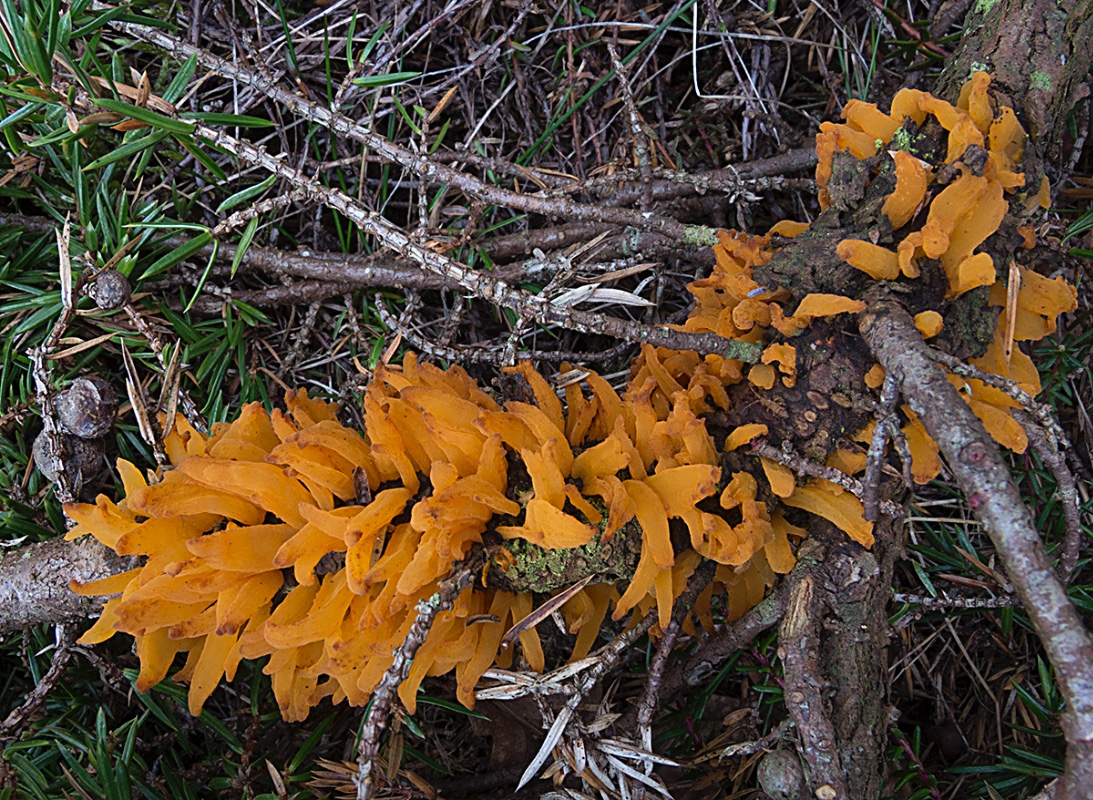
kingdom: Fungi
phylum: Basidiomycota
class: Pucciniomycetes
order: Pucciniales
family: Gymnosporangiaceae
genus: Gymnosporangium
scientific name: Gymnosporangium clavariiforme
